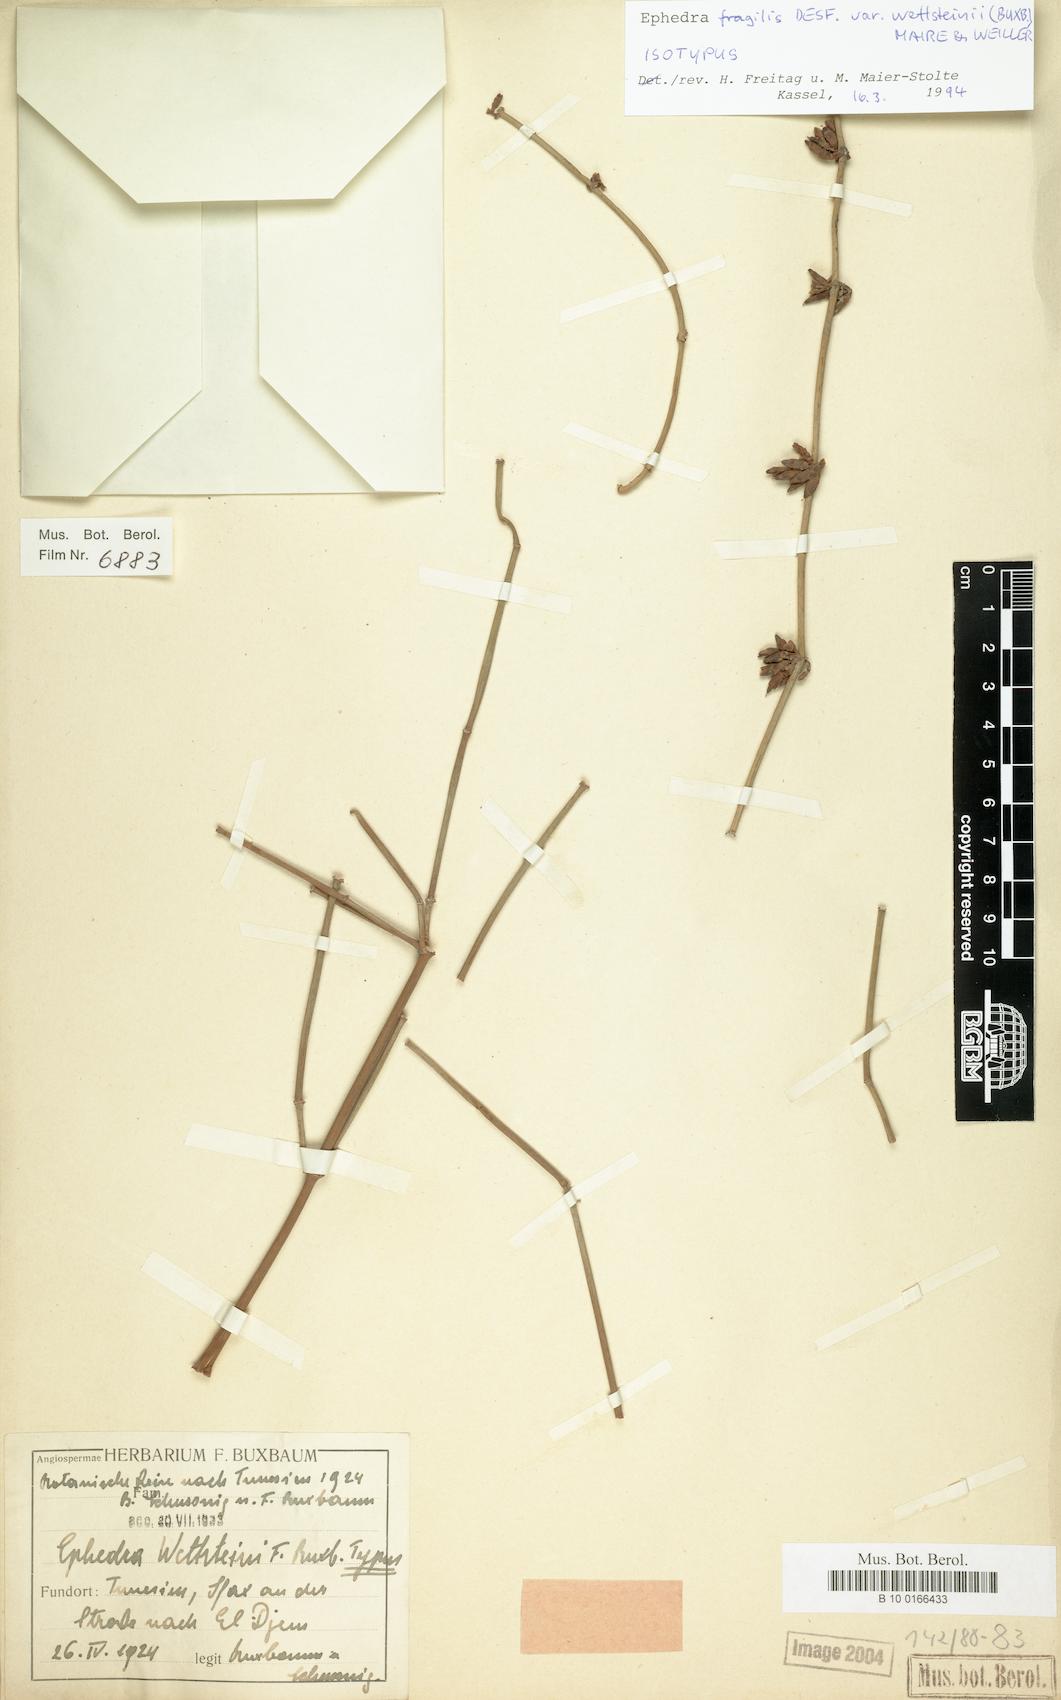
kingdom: Plantae
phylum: Tracheophyta
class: Gnetopsida
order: Ephedrales
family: Ephedraceae
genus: Ephedra
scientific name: Ephedra fragilis
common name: Joint pine
